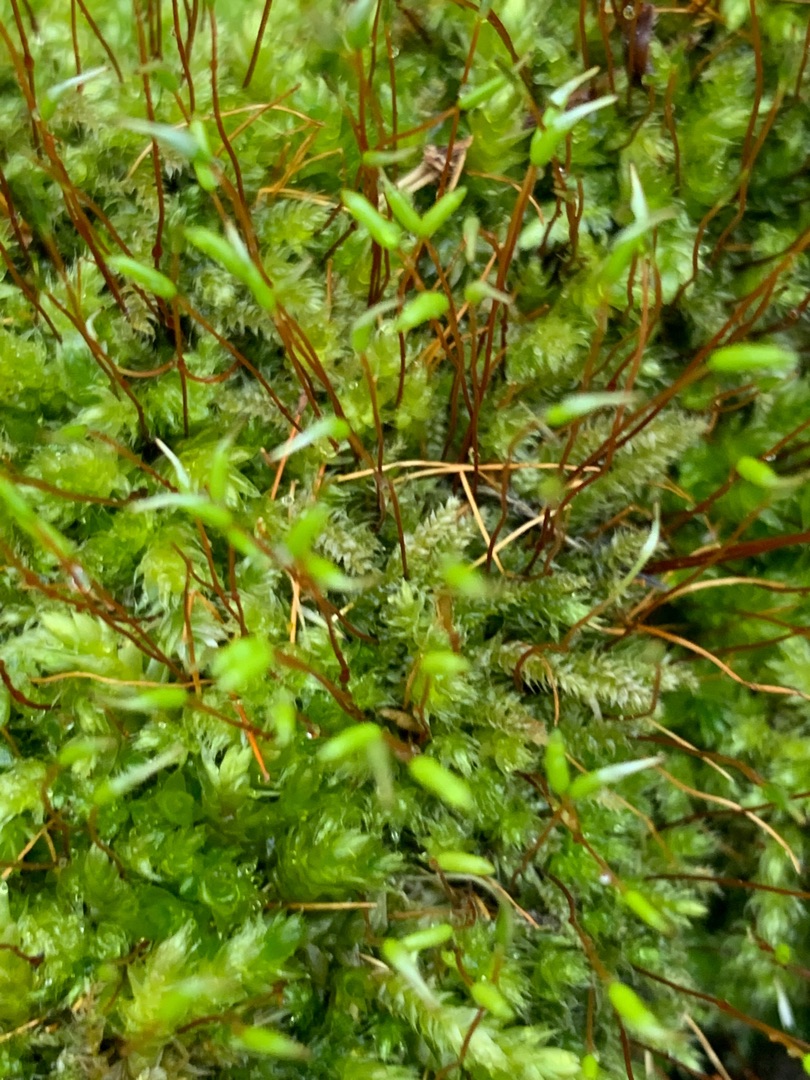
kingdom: Plantae
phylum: Bryophyta
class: Bryopsida
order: Hypnales
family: Plagiotheciaceae
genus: Herzogiella
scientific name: Herzogiella seligeri
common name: Stub-pølsekapsel
